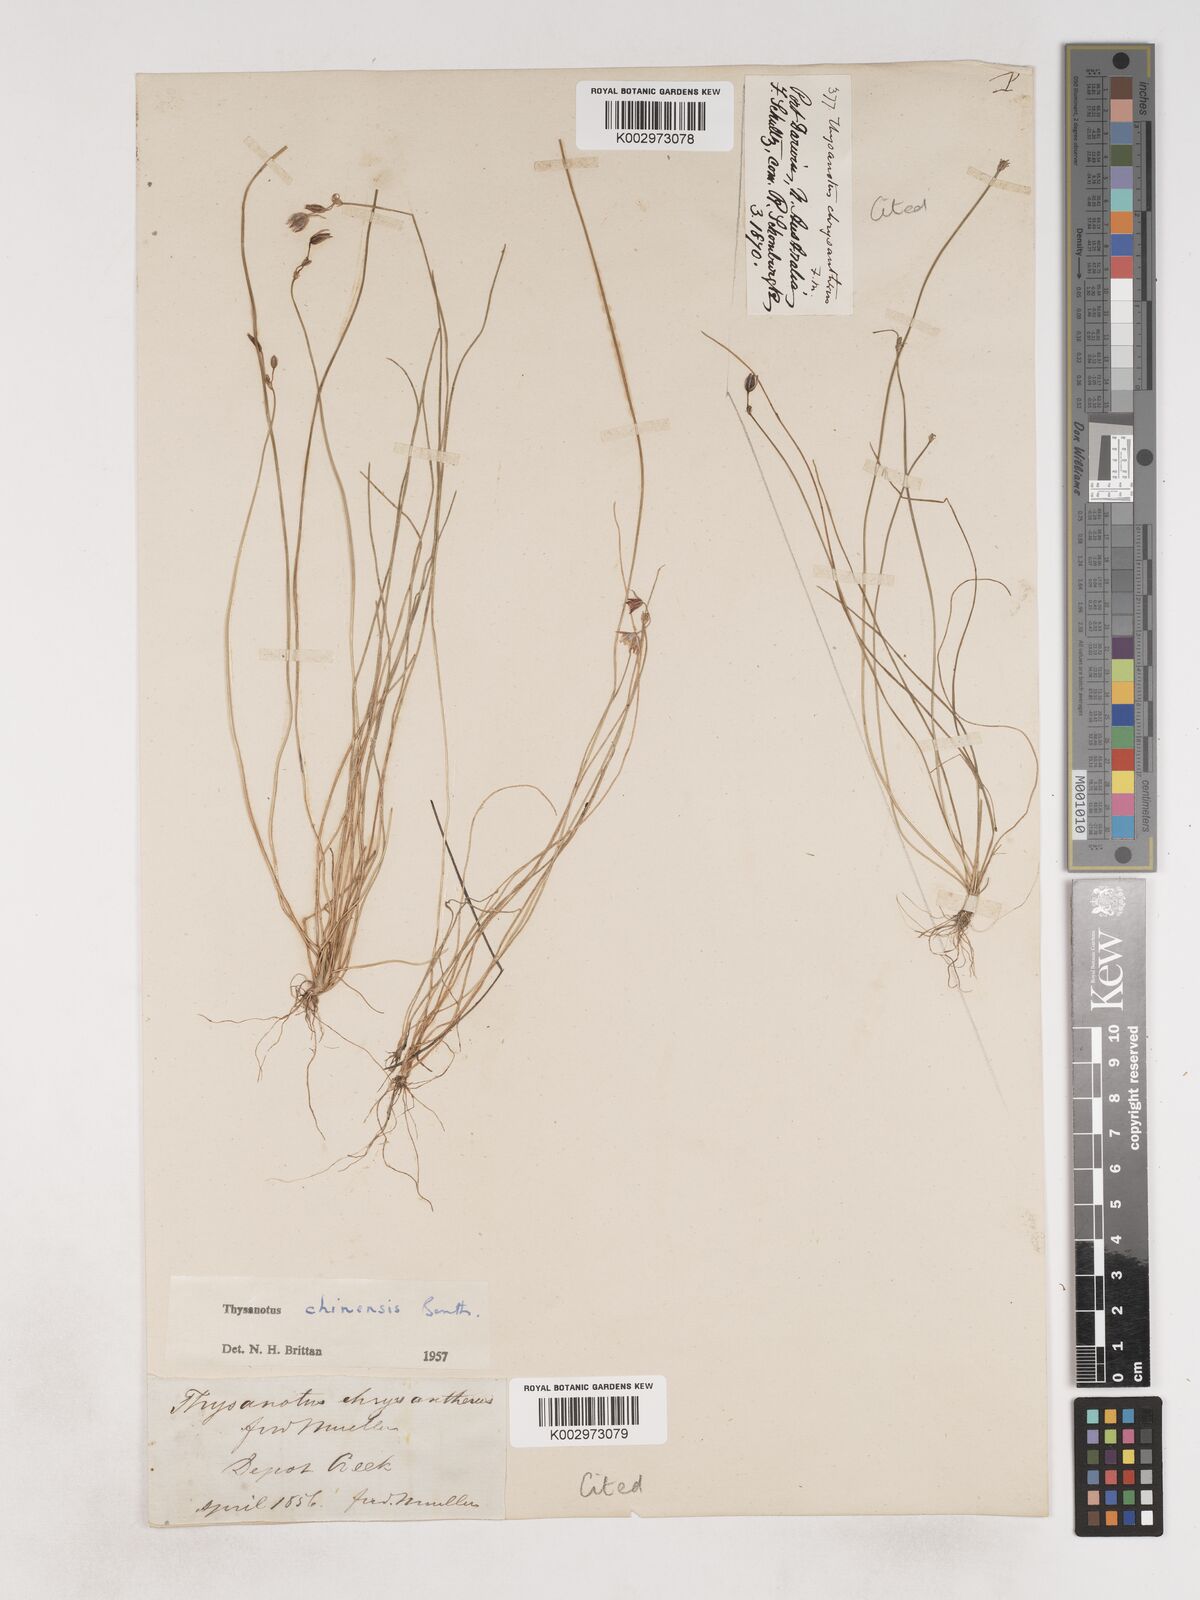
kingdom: Plantae
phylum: Tracheophyta
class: Liliopsida
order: Asparagales
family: Asparagaceae
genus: Thysanotus
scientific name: Thysanotus chinensis
